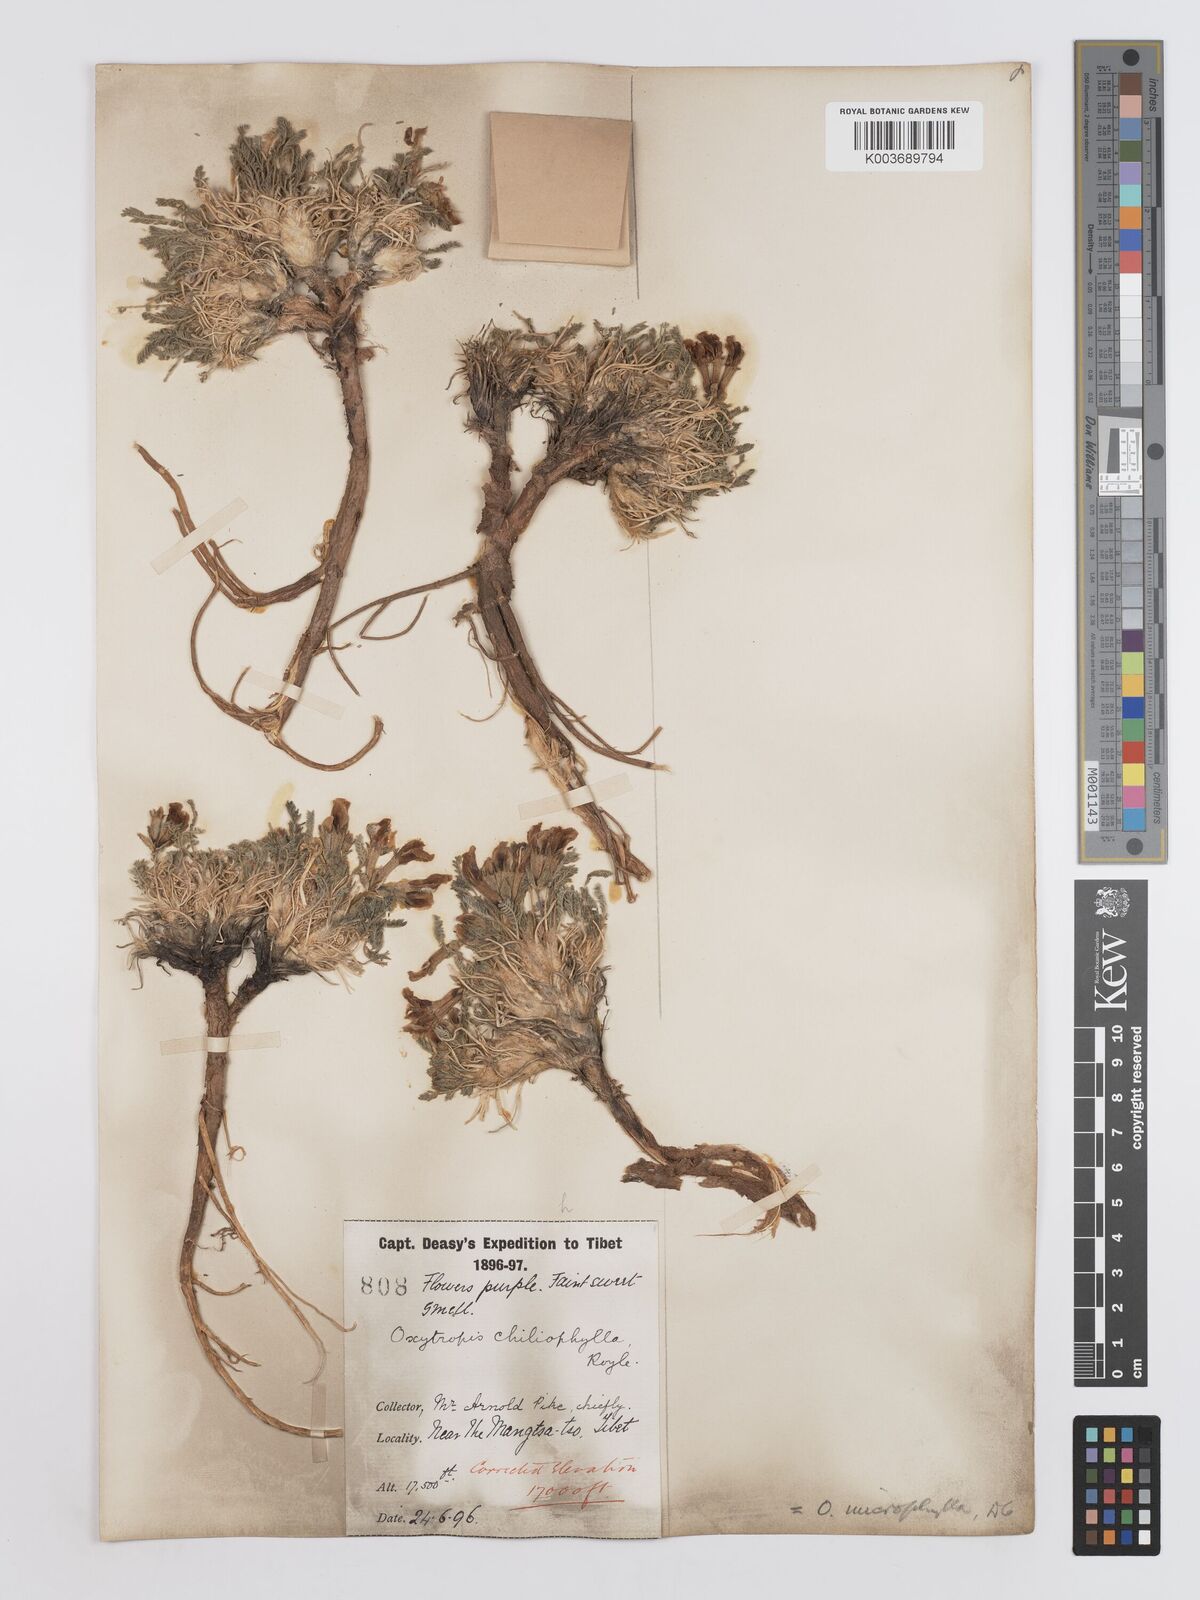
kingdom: Plantae
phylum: Tracheophyta
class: Magnoliopsida
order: Fabales
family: Fabaceae
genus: Oxytropis
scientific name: Oxytropis chiliophylla
